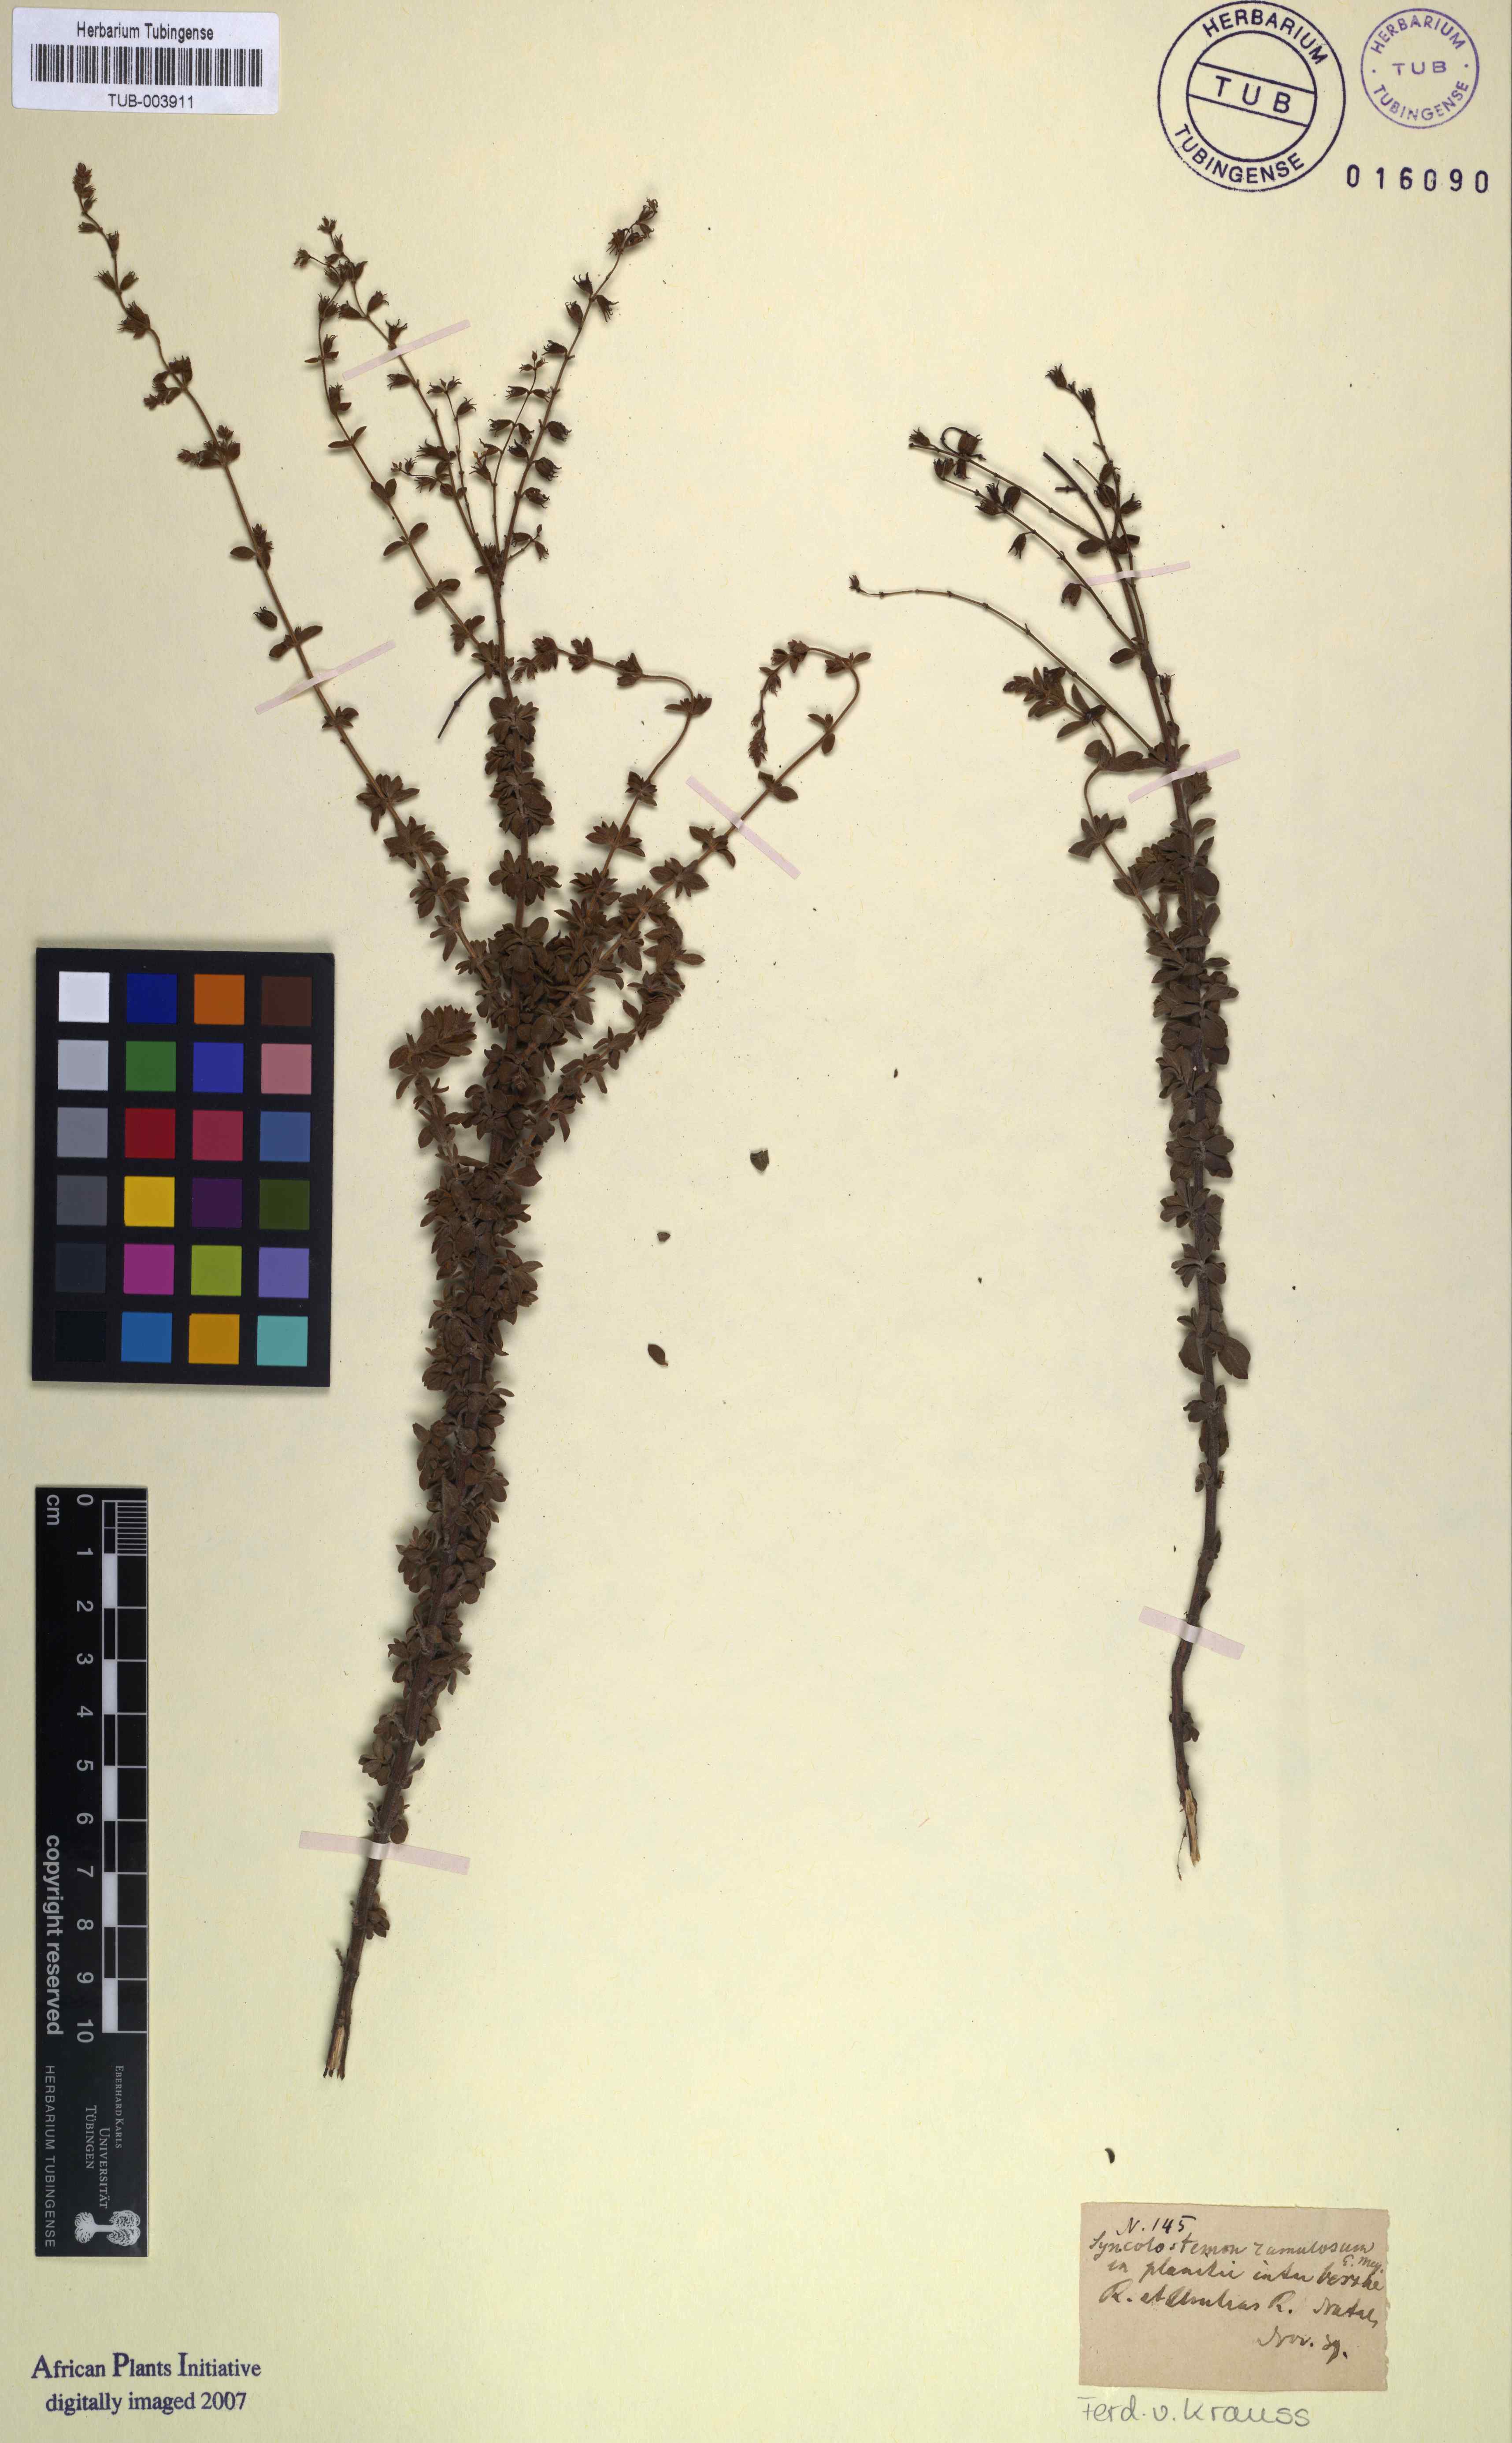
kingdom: Plantae
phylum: Tracheophyta
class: Magnoliopsida
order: Lamiales
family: Lamiaceae
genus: Syncolostemon
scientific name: Syncolostemon ramulosus
